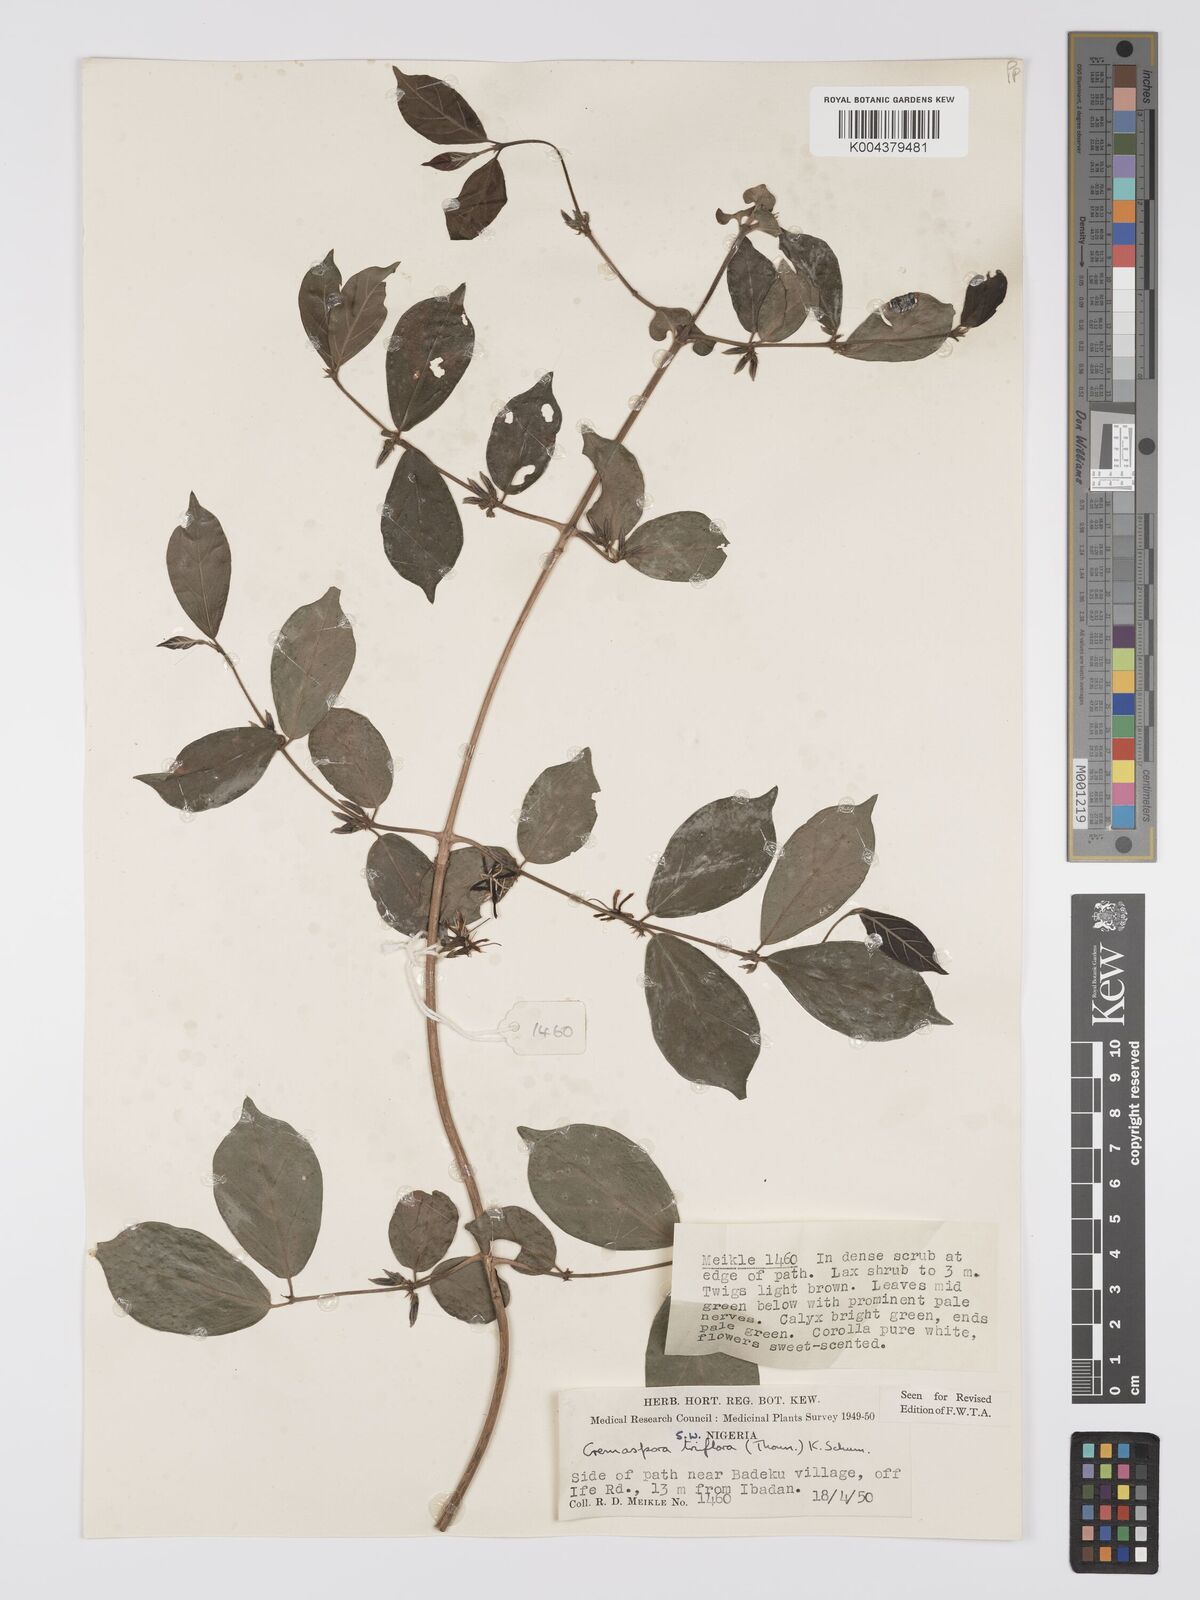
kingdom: Plantae
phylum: Tracheophyta
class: Magnoliopsida
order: Gentianales
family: Rubiaceae
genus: Cremaspora
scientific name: Cremaspora triflora
